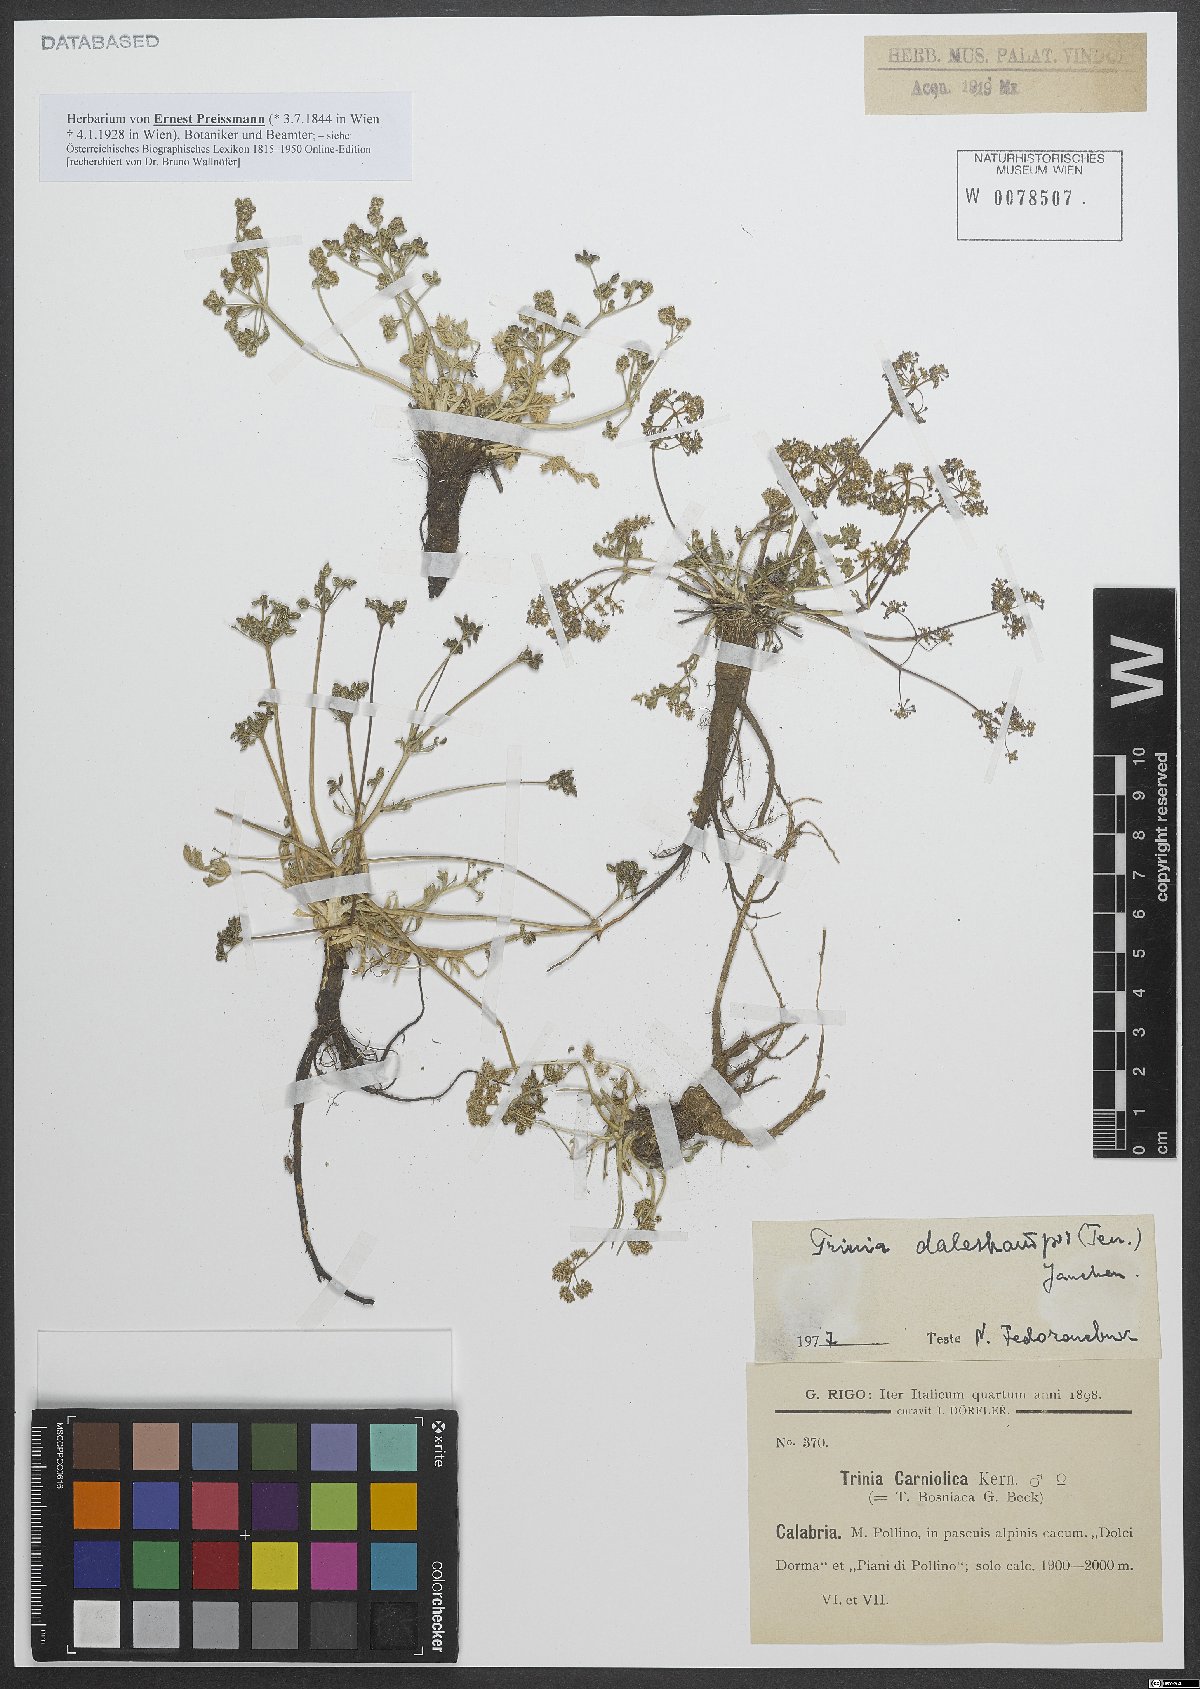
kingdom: Plantae
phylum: Tracheophyta
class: Magnoliopsida
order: Apiales
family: Apiaceae
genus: Trinia
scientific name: Trinia dalechampii
